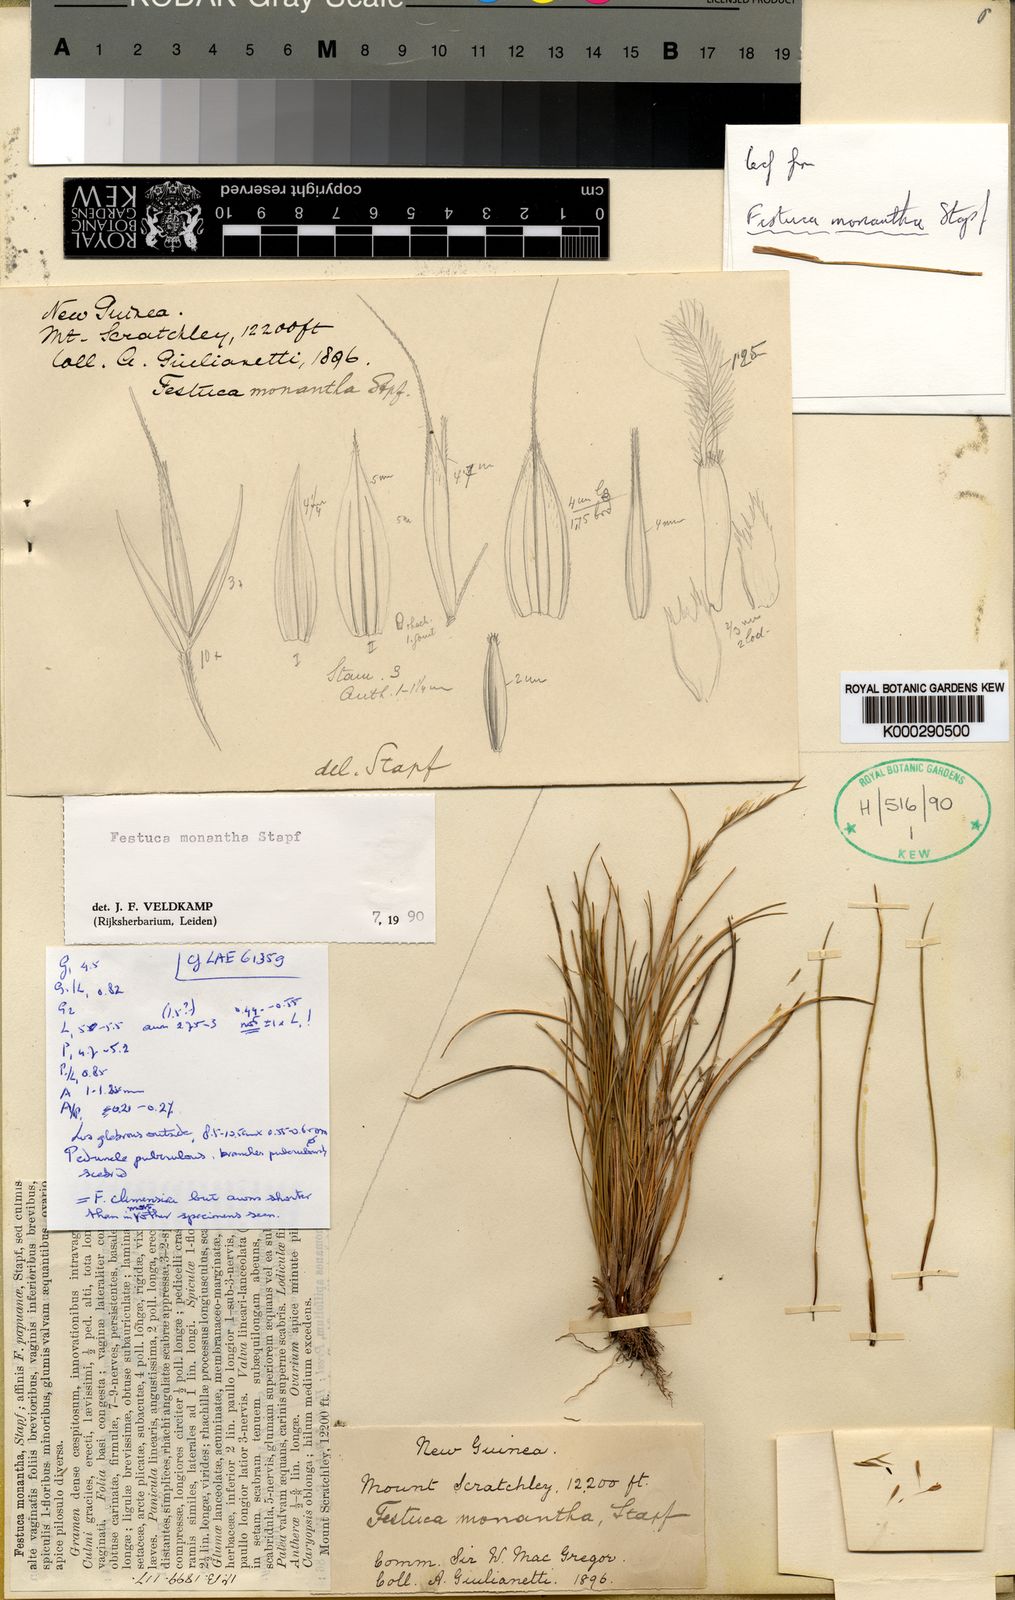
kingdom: Plantae
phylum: Tracheophyta
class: Liliopsida
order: Poales
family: Poaceae
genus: Festuca
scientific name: Festuca papuana
